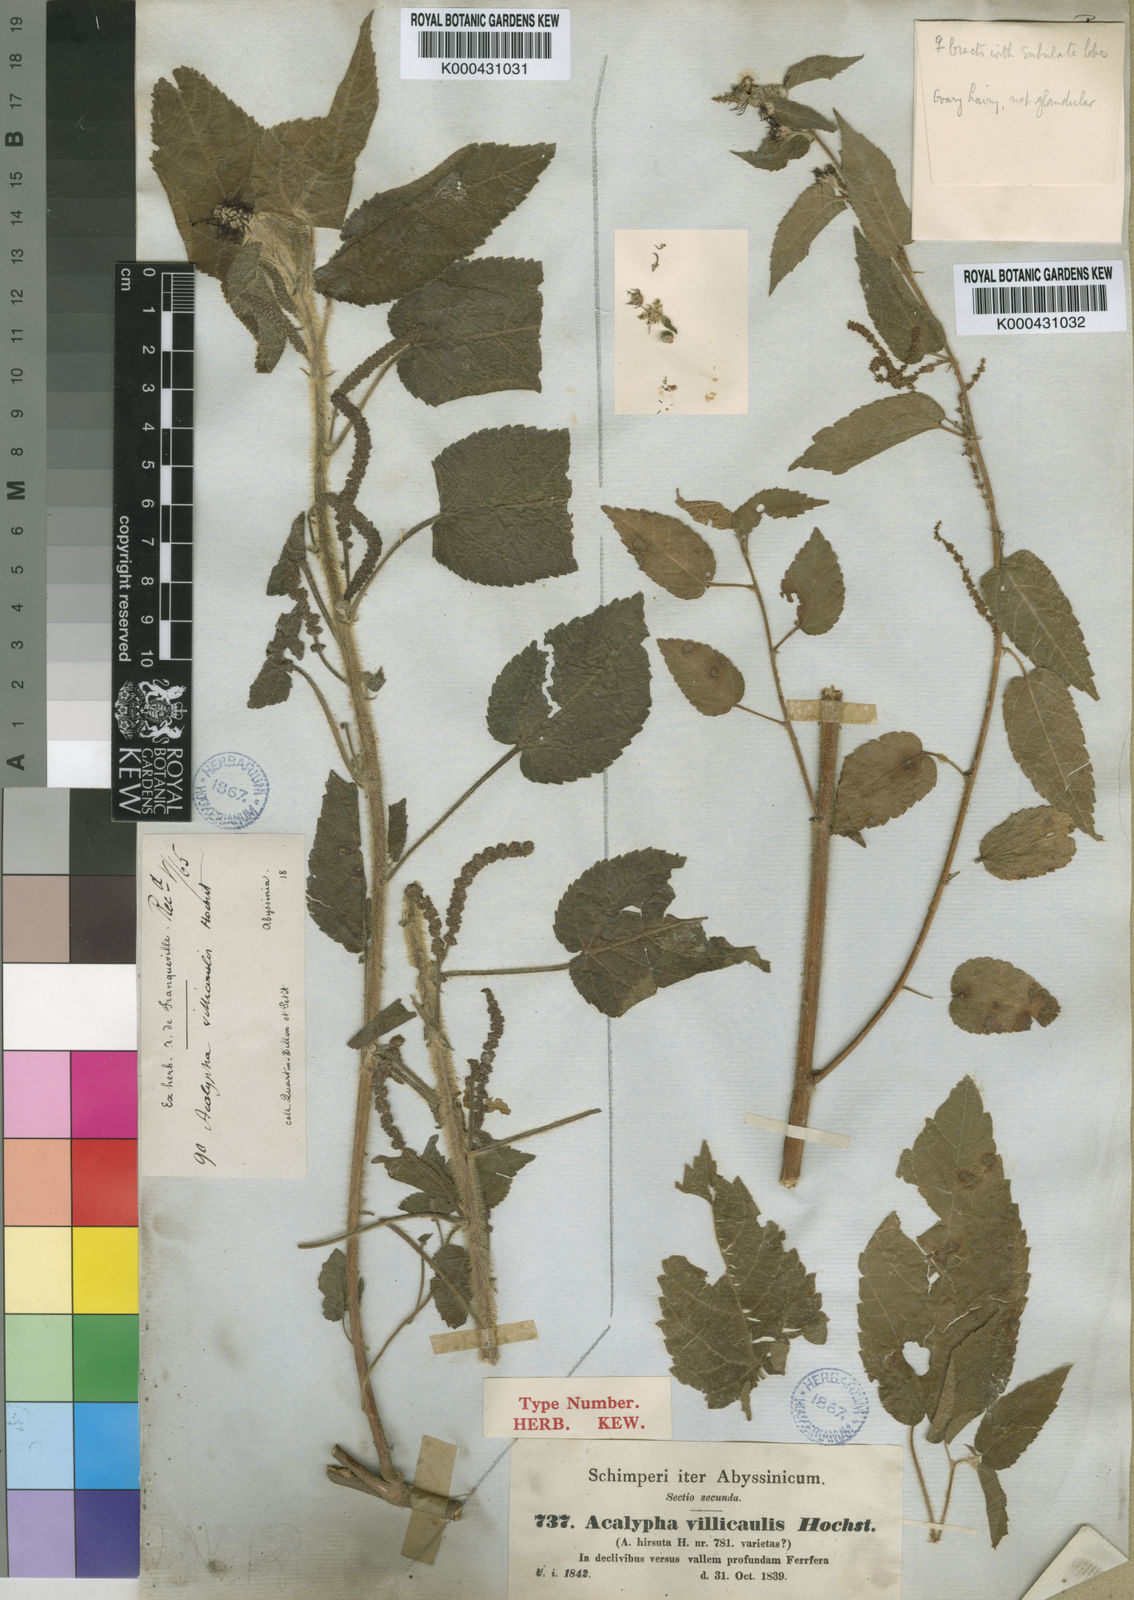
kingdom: Plantae
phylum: Tracheophyta
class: Magnoliopsida
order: Malpighiales
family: Euphorbiaceae
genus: Acalypha
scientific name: Acalypha petiolaris
